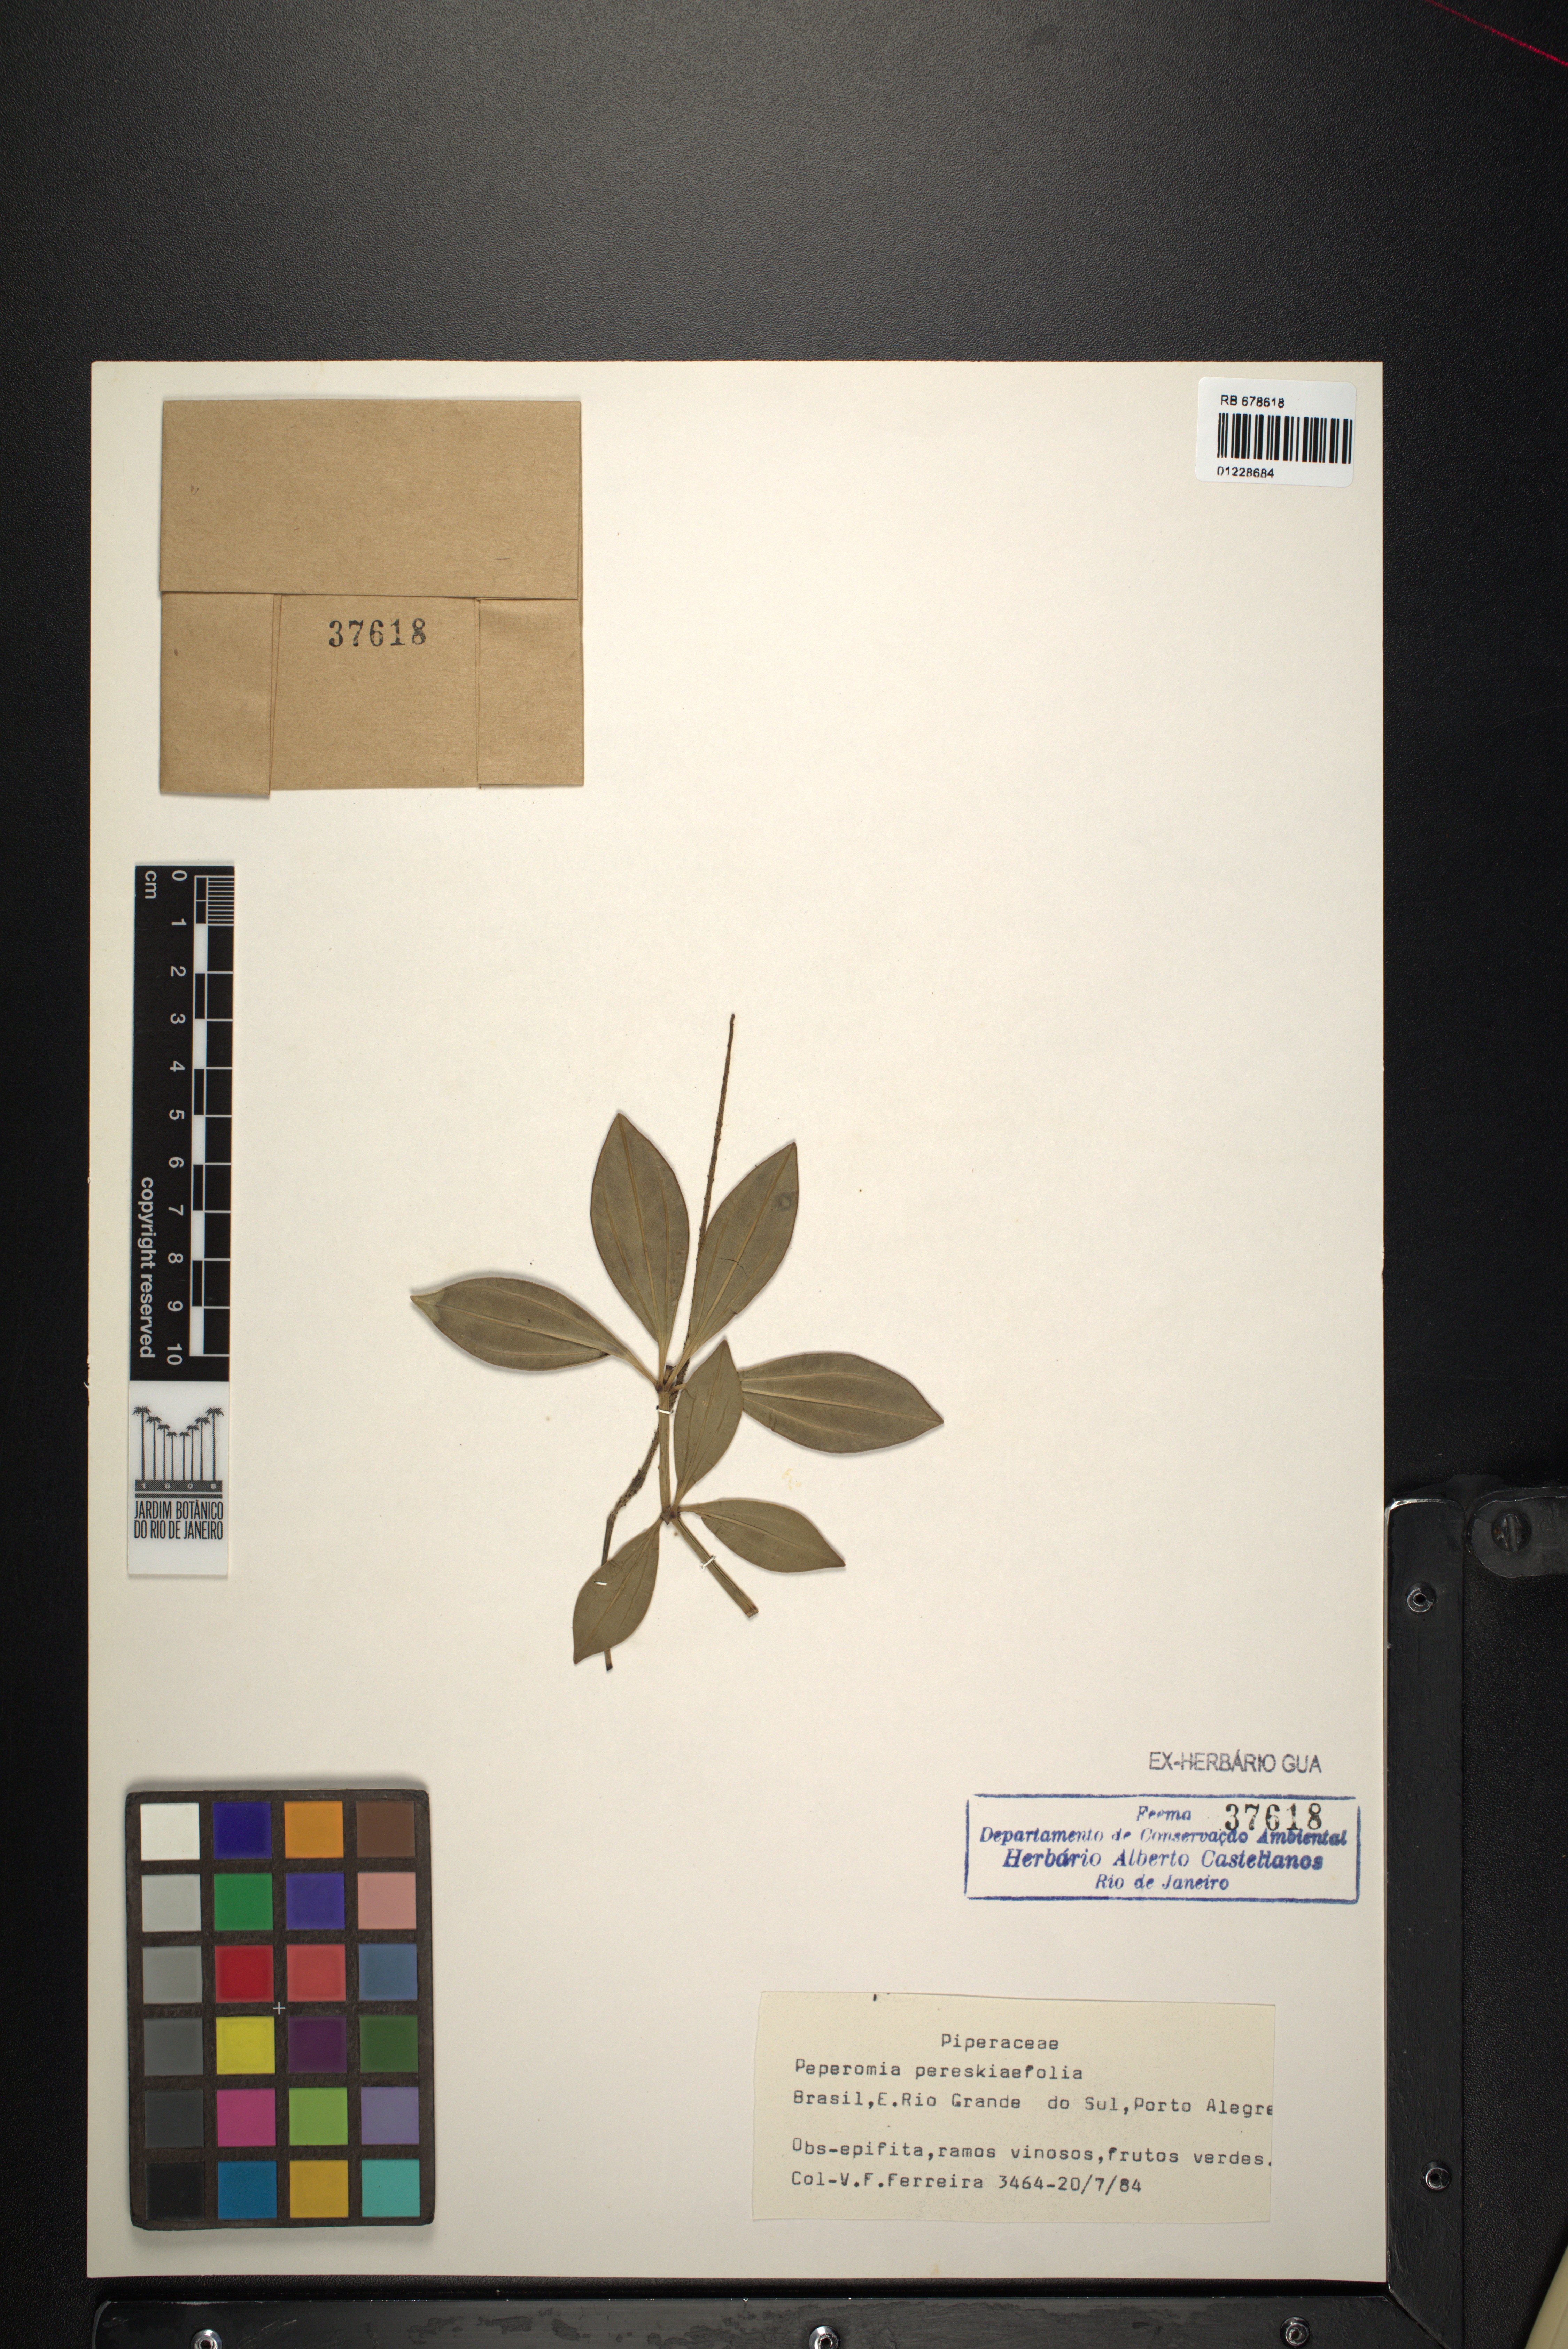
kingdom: Plantae
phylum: Tracheophyta
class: Magnoliopsida
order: Piperales
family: Piperaceae
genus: Peperomia
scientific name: Peperomia pereskiifolia
